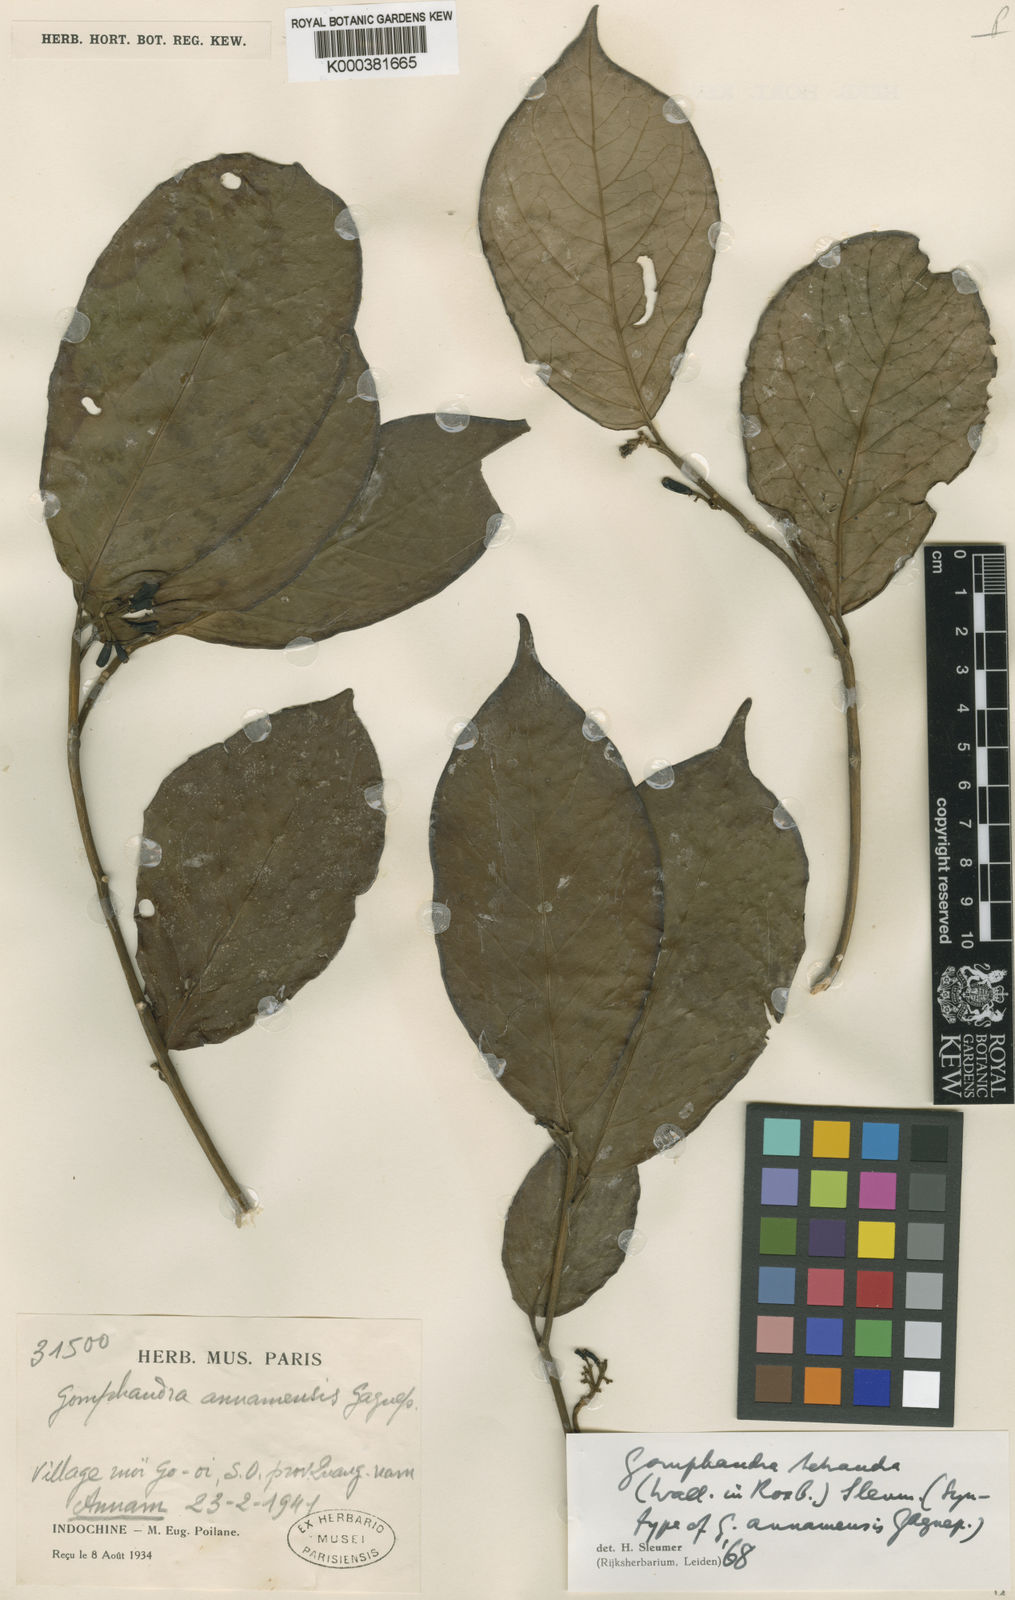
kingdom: Plantae
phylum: Tracheophyta
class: Magnoliopsida
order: Cardiopteridales
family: Stemonuraceae
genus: Gomphandra
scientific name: Gomphandra
